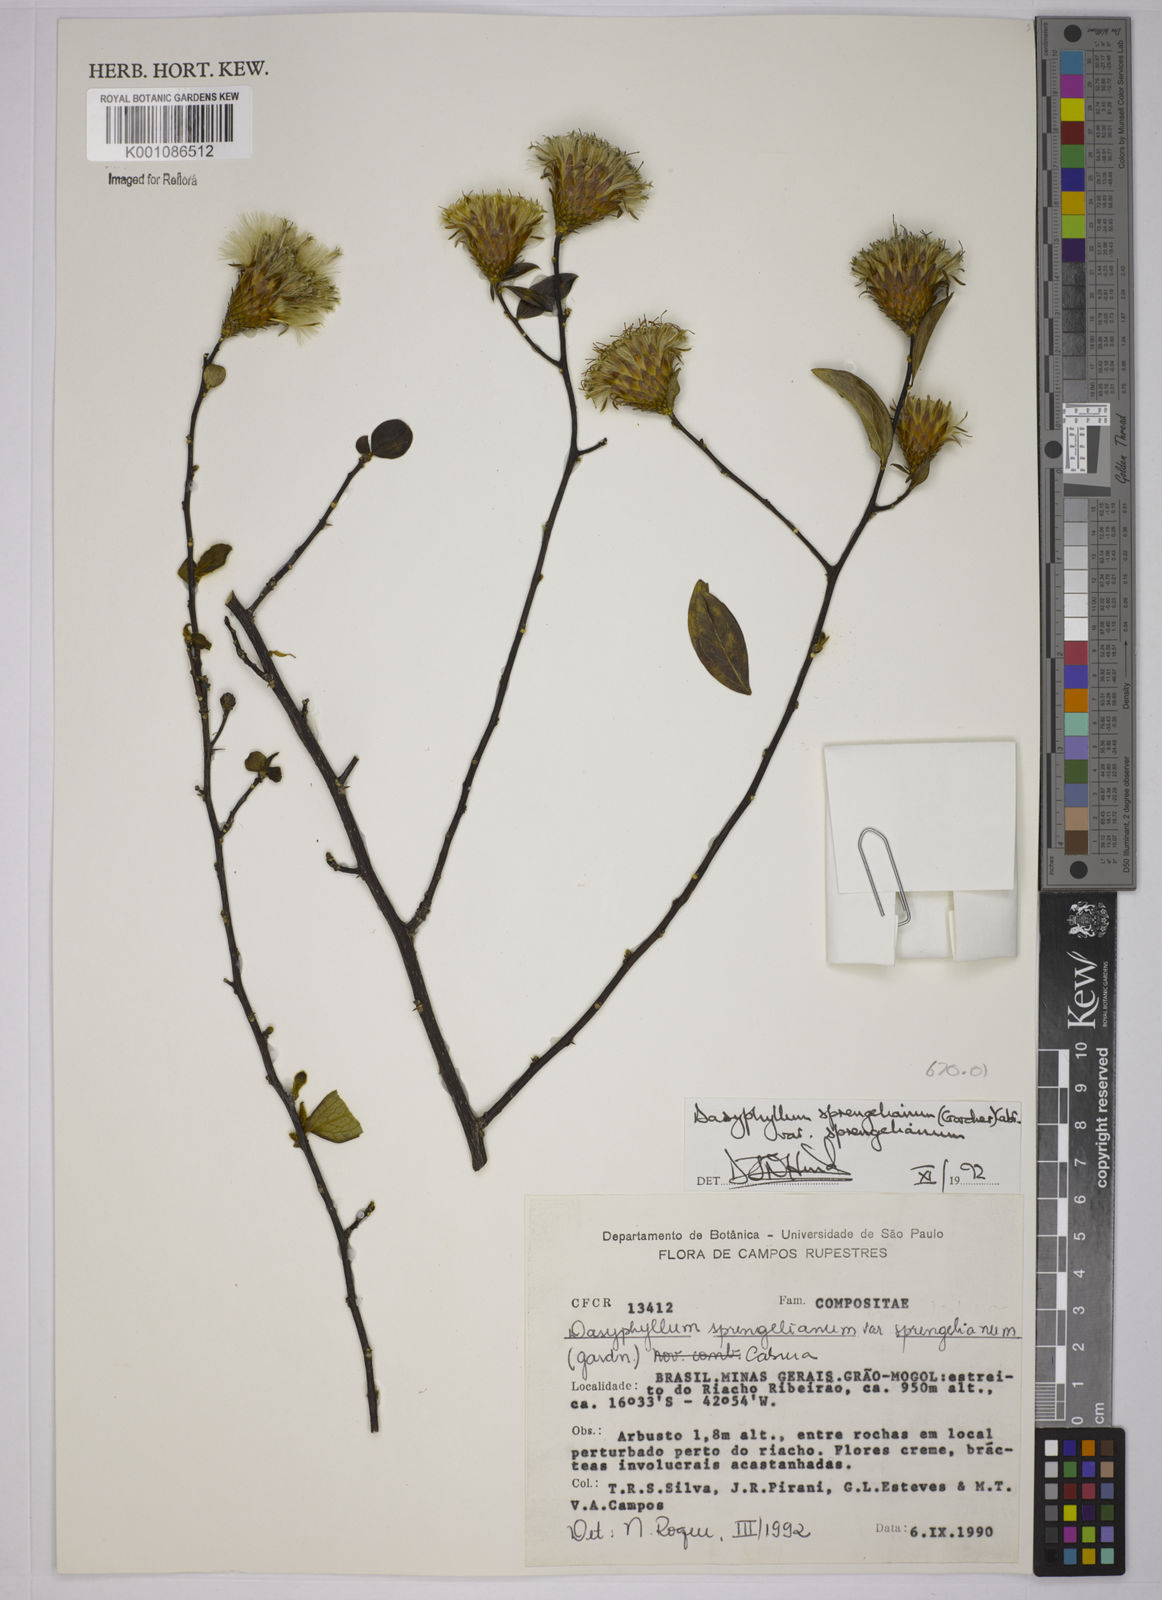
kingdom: Plantae
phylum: Tracheophyta
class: Magnoliopsida
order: Asterales
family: Asteraceae
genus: Dasyphyllum
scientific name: Dasyphyllum sprengelianum
